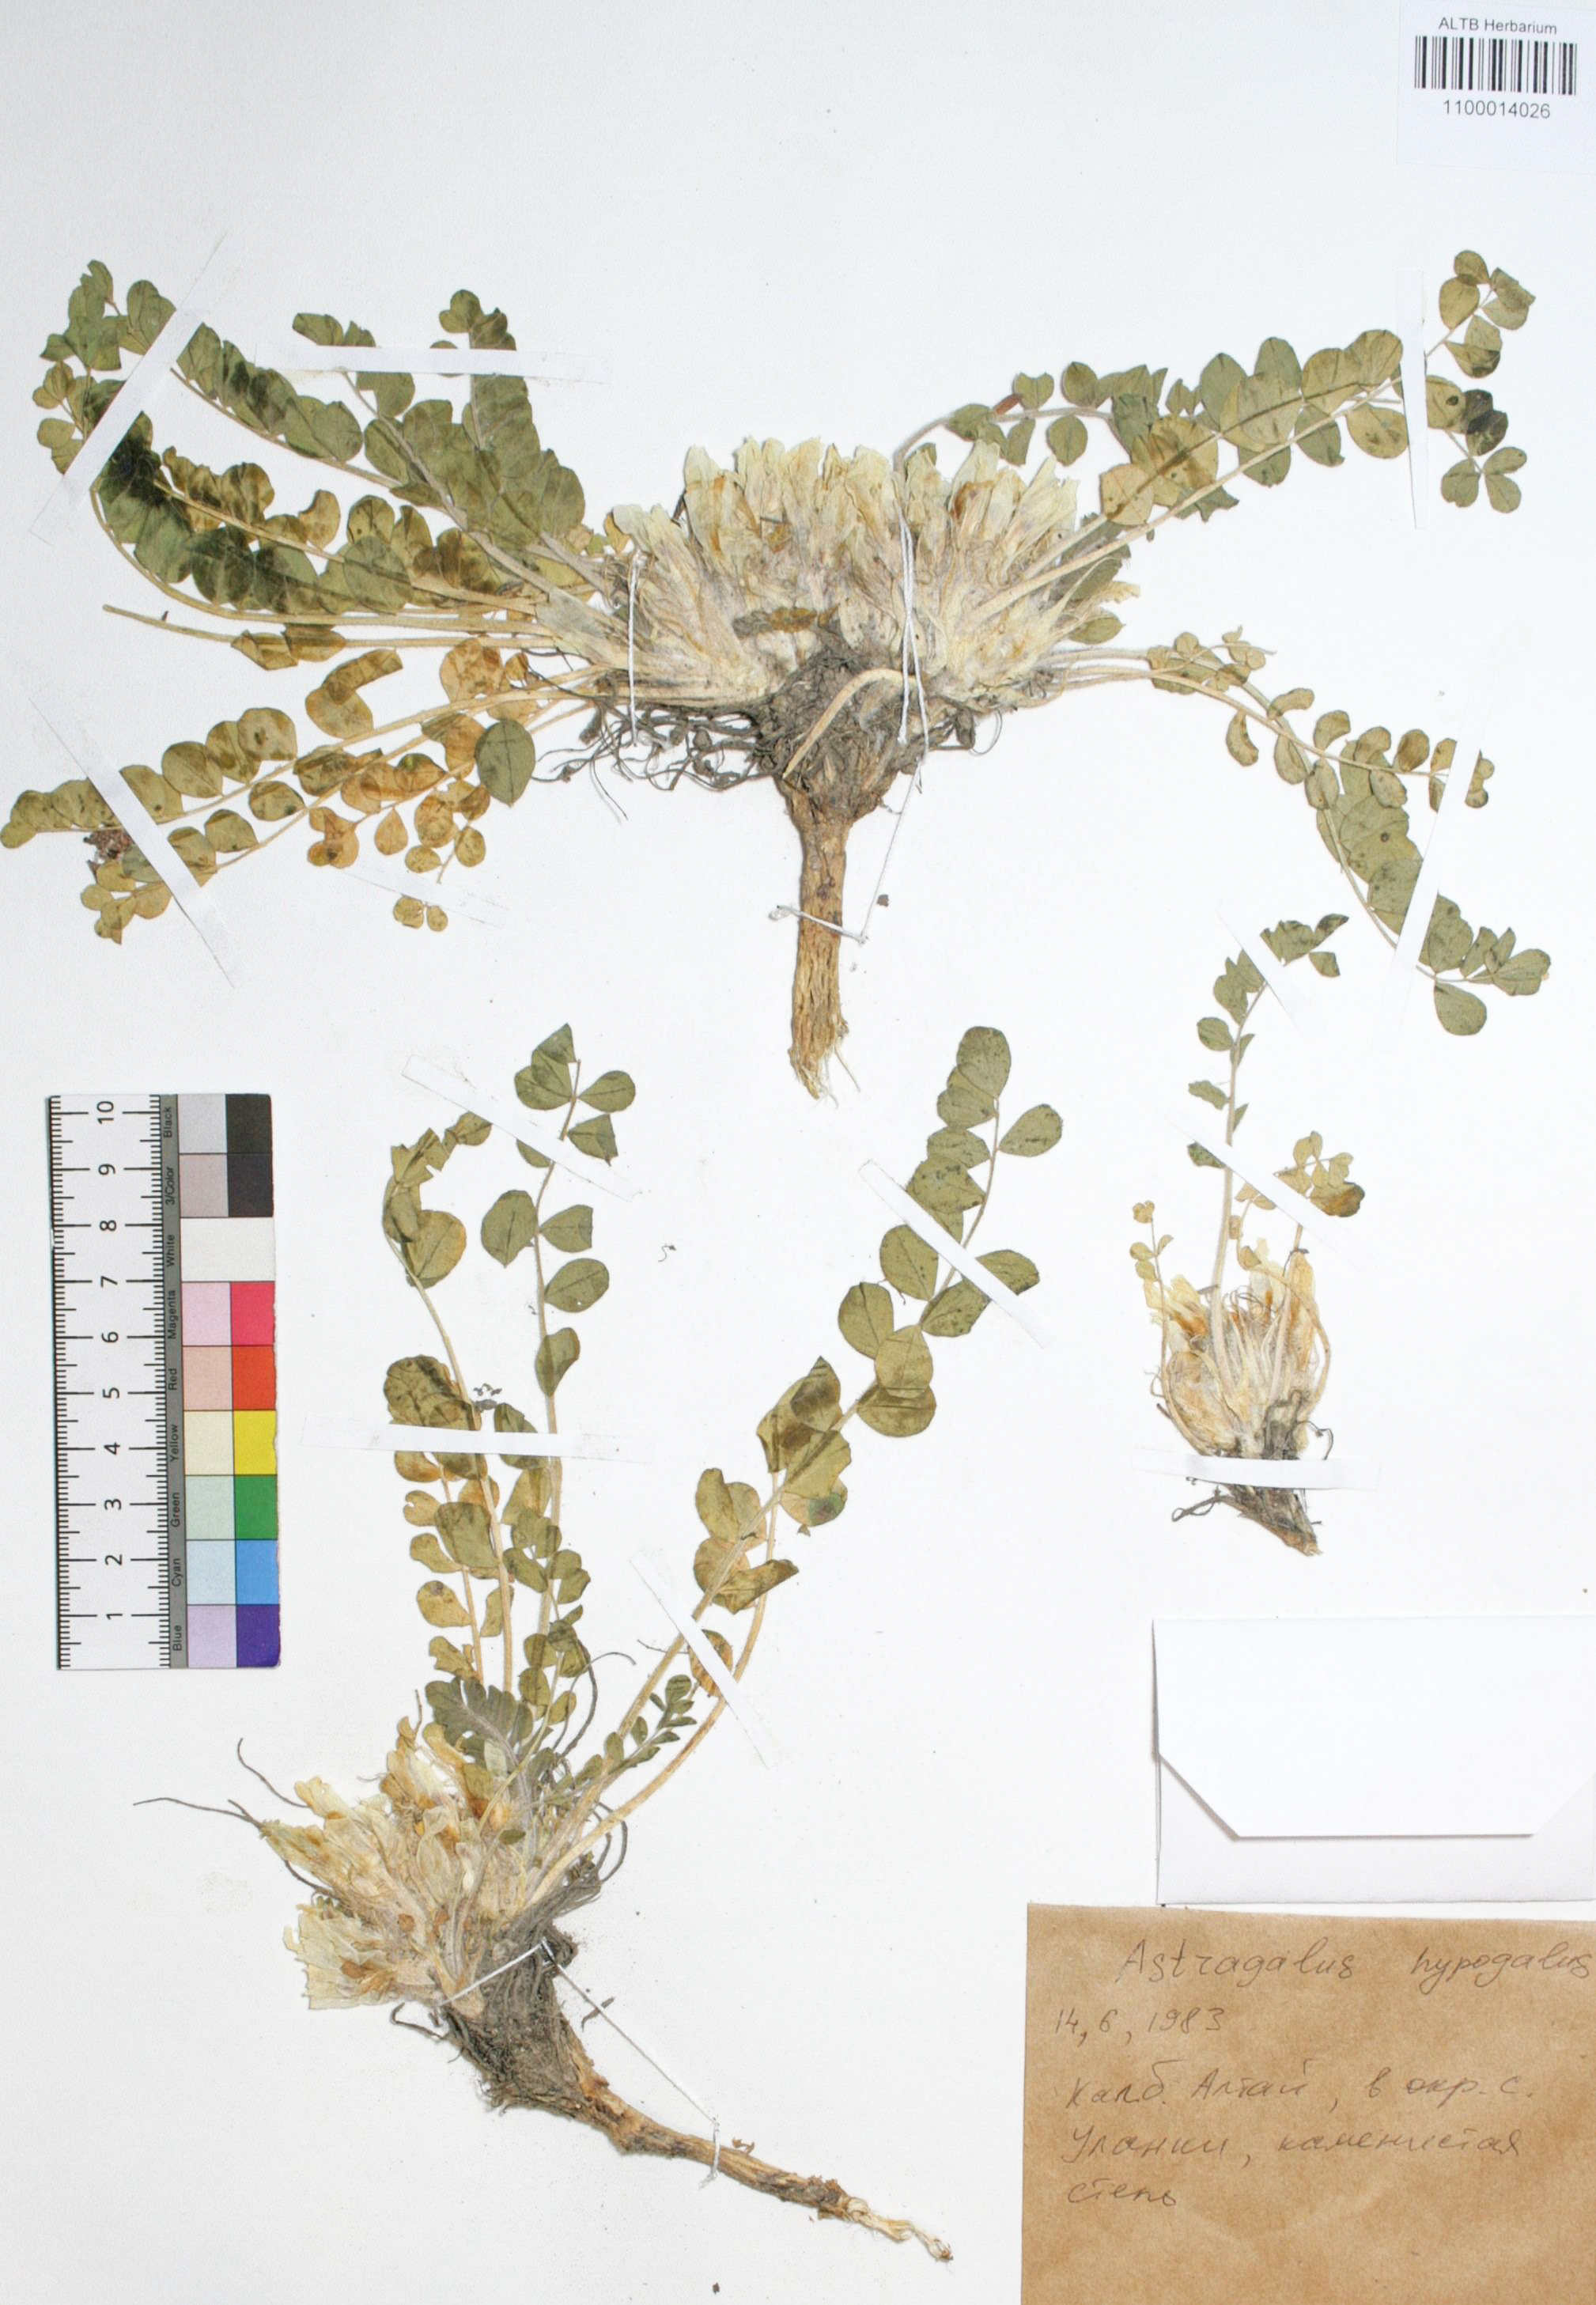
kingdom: Plantae
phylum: Tracheophyta
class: Magnoliopsida
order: Fabales
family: Fabaceae
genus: Astragalus
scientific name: Astragalus hypogaeus
